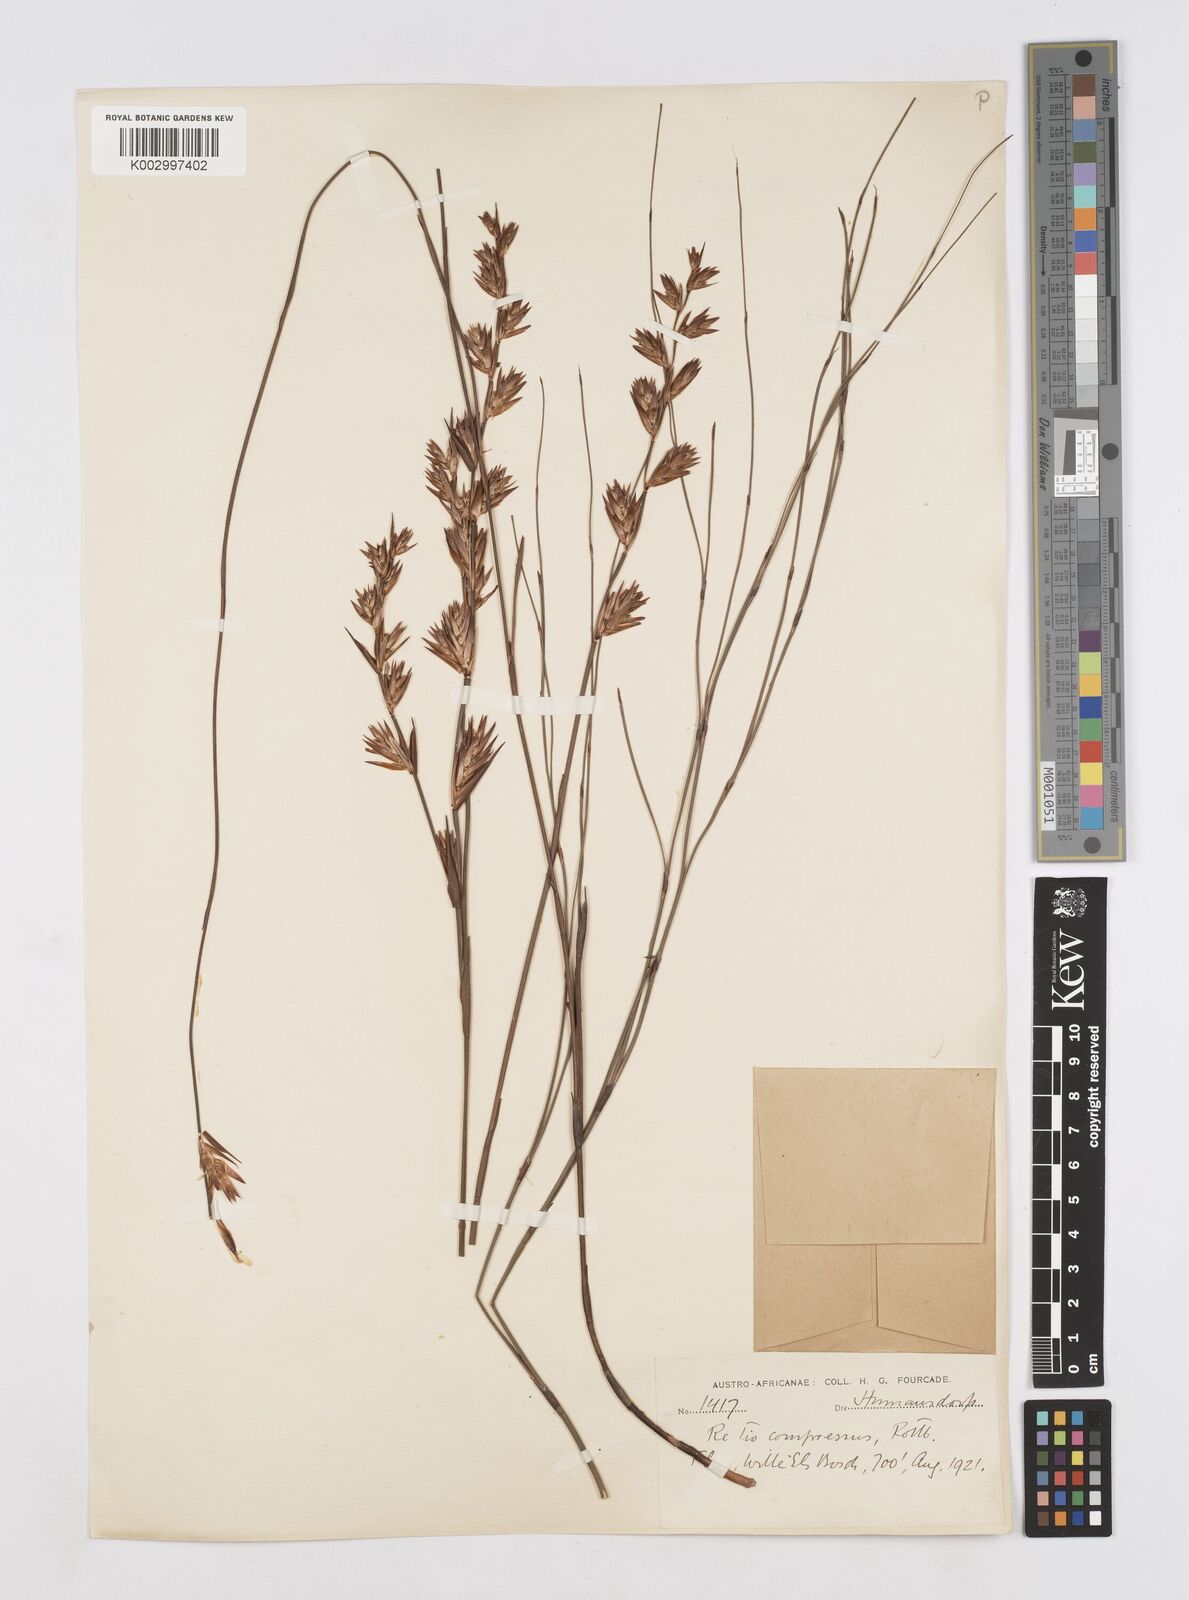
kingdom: Plantae
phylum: Tracheophyta
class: Liliopsida
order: Poales
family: Restionaceae
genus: Platycaulos
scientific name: Platycaulos compressus
